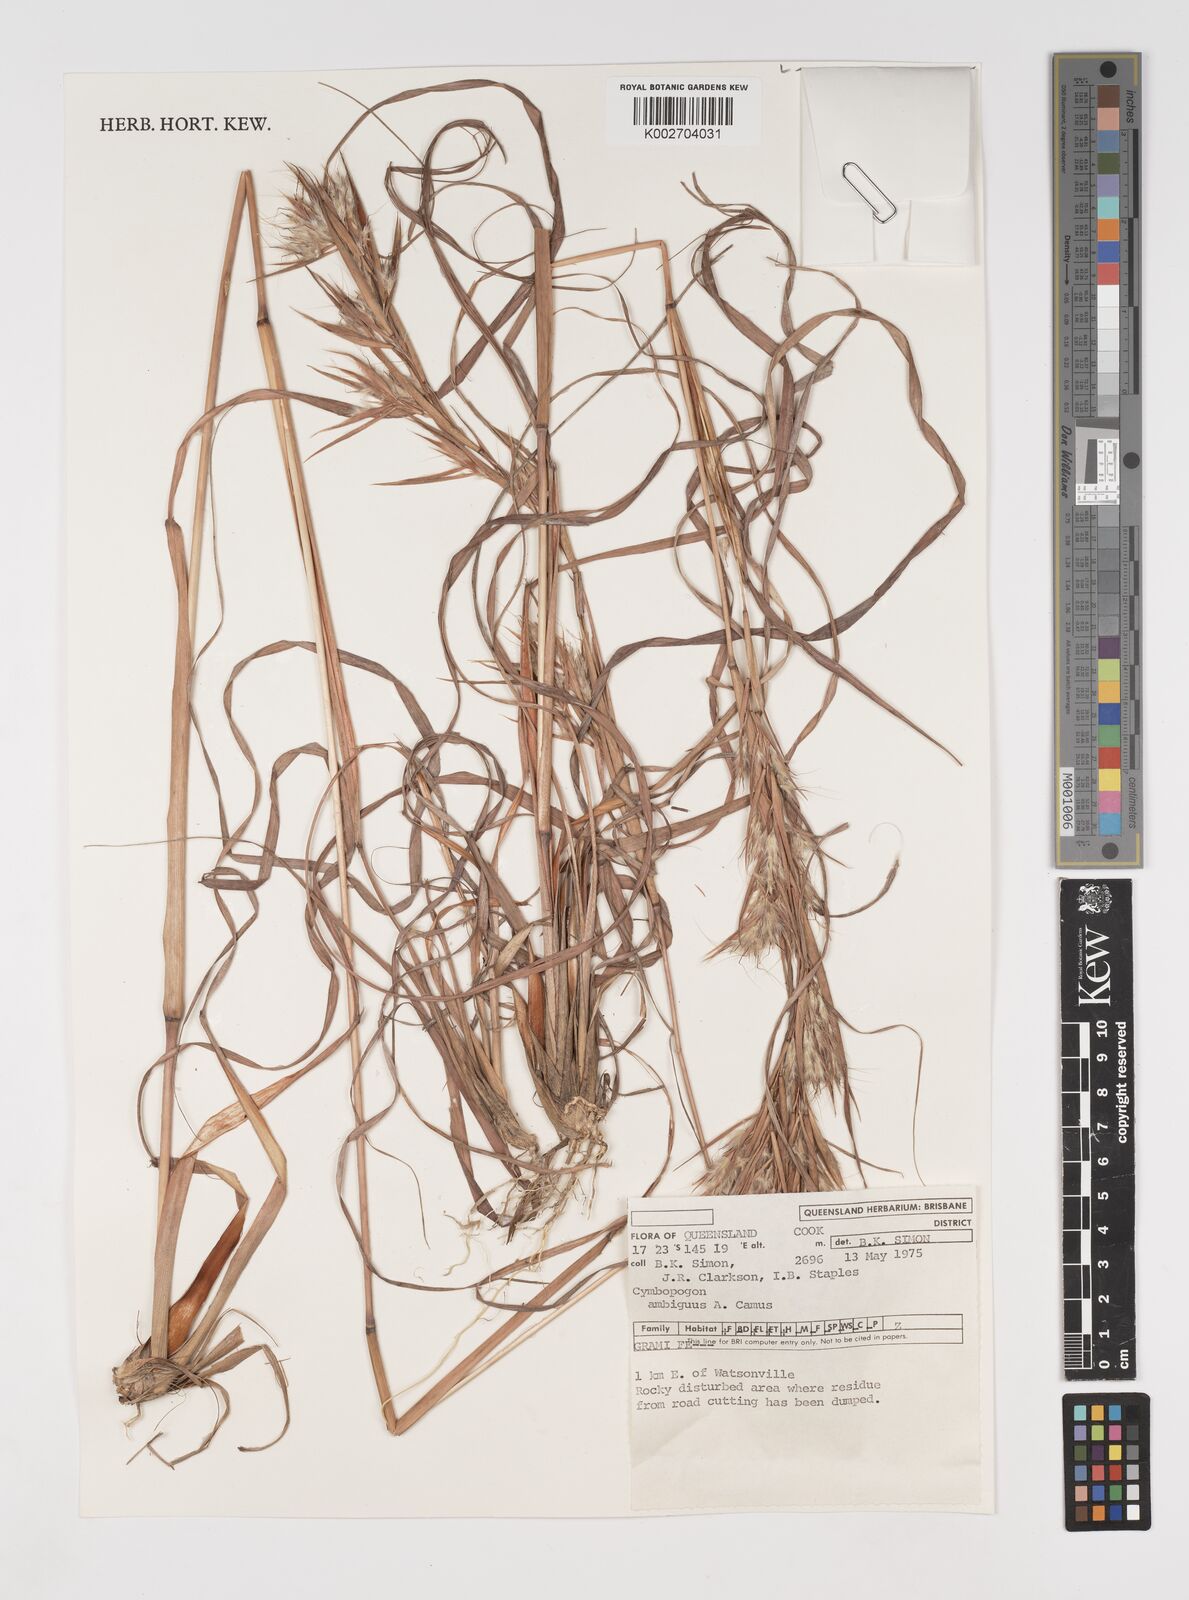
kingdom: Plantae
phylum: Tracheophyta
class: Liliopsida
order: Poales
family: Poaceae
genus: Cymbopogon
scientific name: Cymbopogon ambiguus
